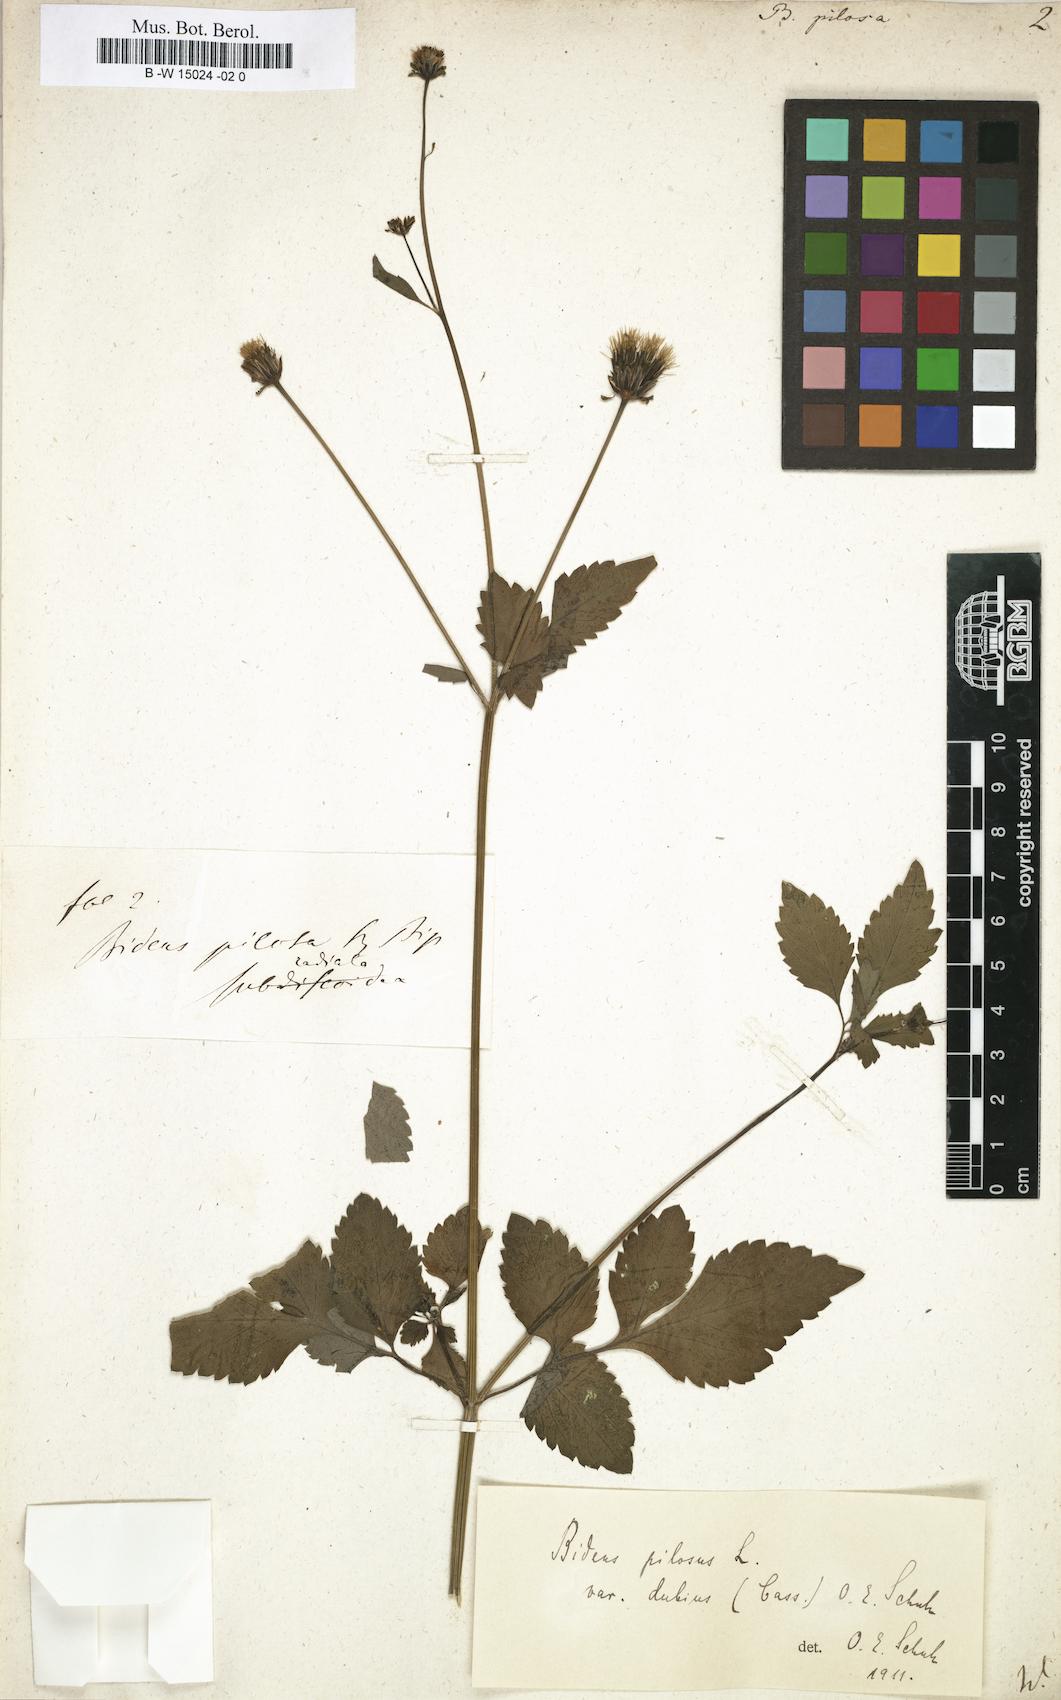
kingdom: Plantae
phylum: Tracheophyta
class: Magnoliopsida
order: Asterales
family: Asteraceae
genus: Bidens
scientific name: Bidens pilosa
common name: Black-jack
